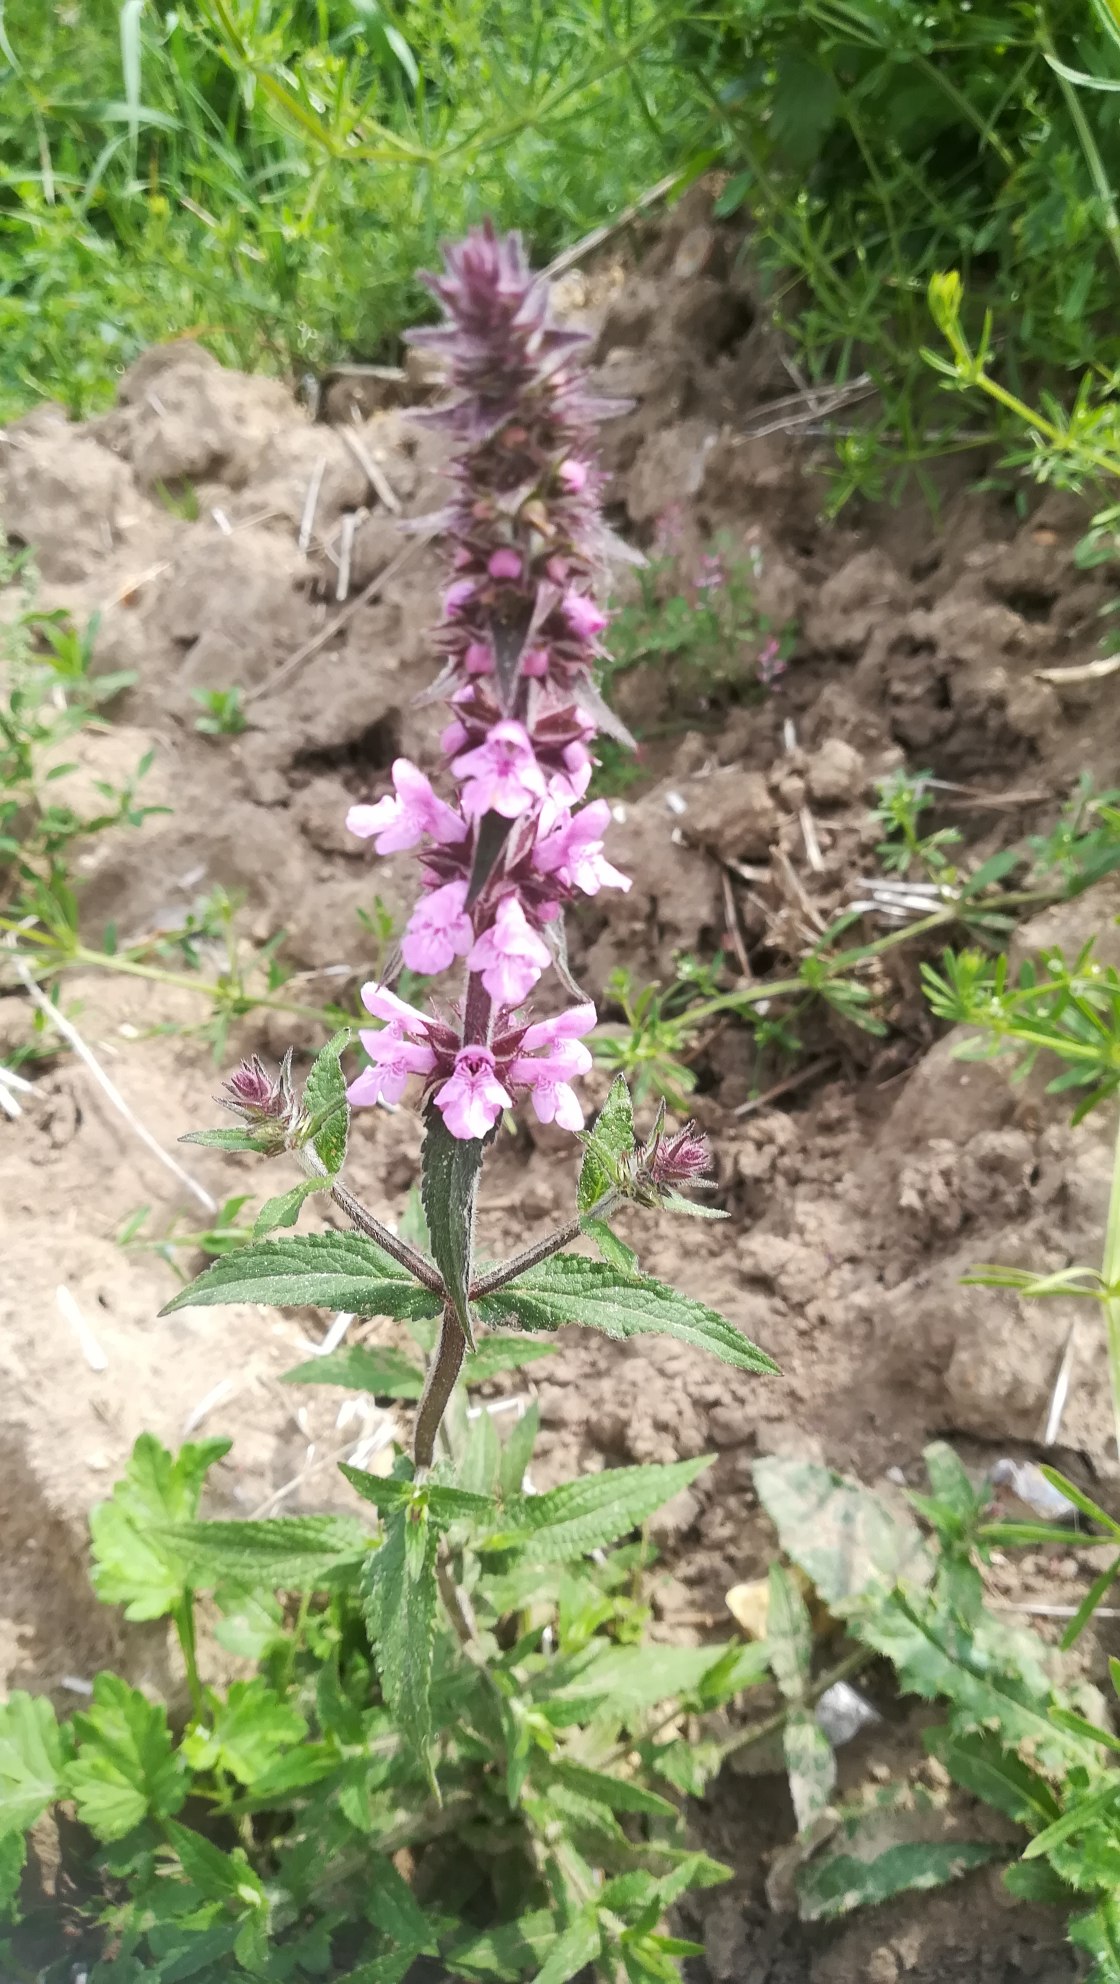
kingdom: Plantae
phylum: Tracheophyta
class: Magnoliopsida
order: Lamiales
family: Lamiaceae
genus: Stachys
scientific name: Stachys palustris
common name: Kær-galtetand
